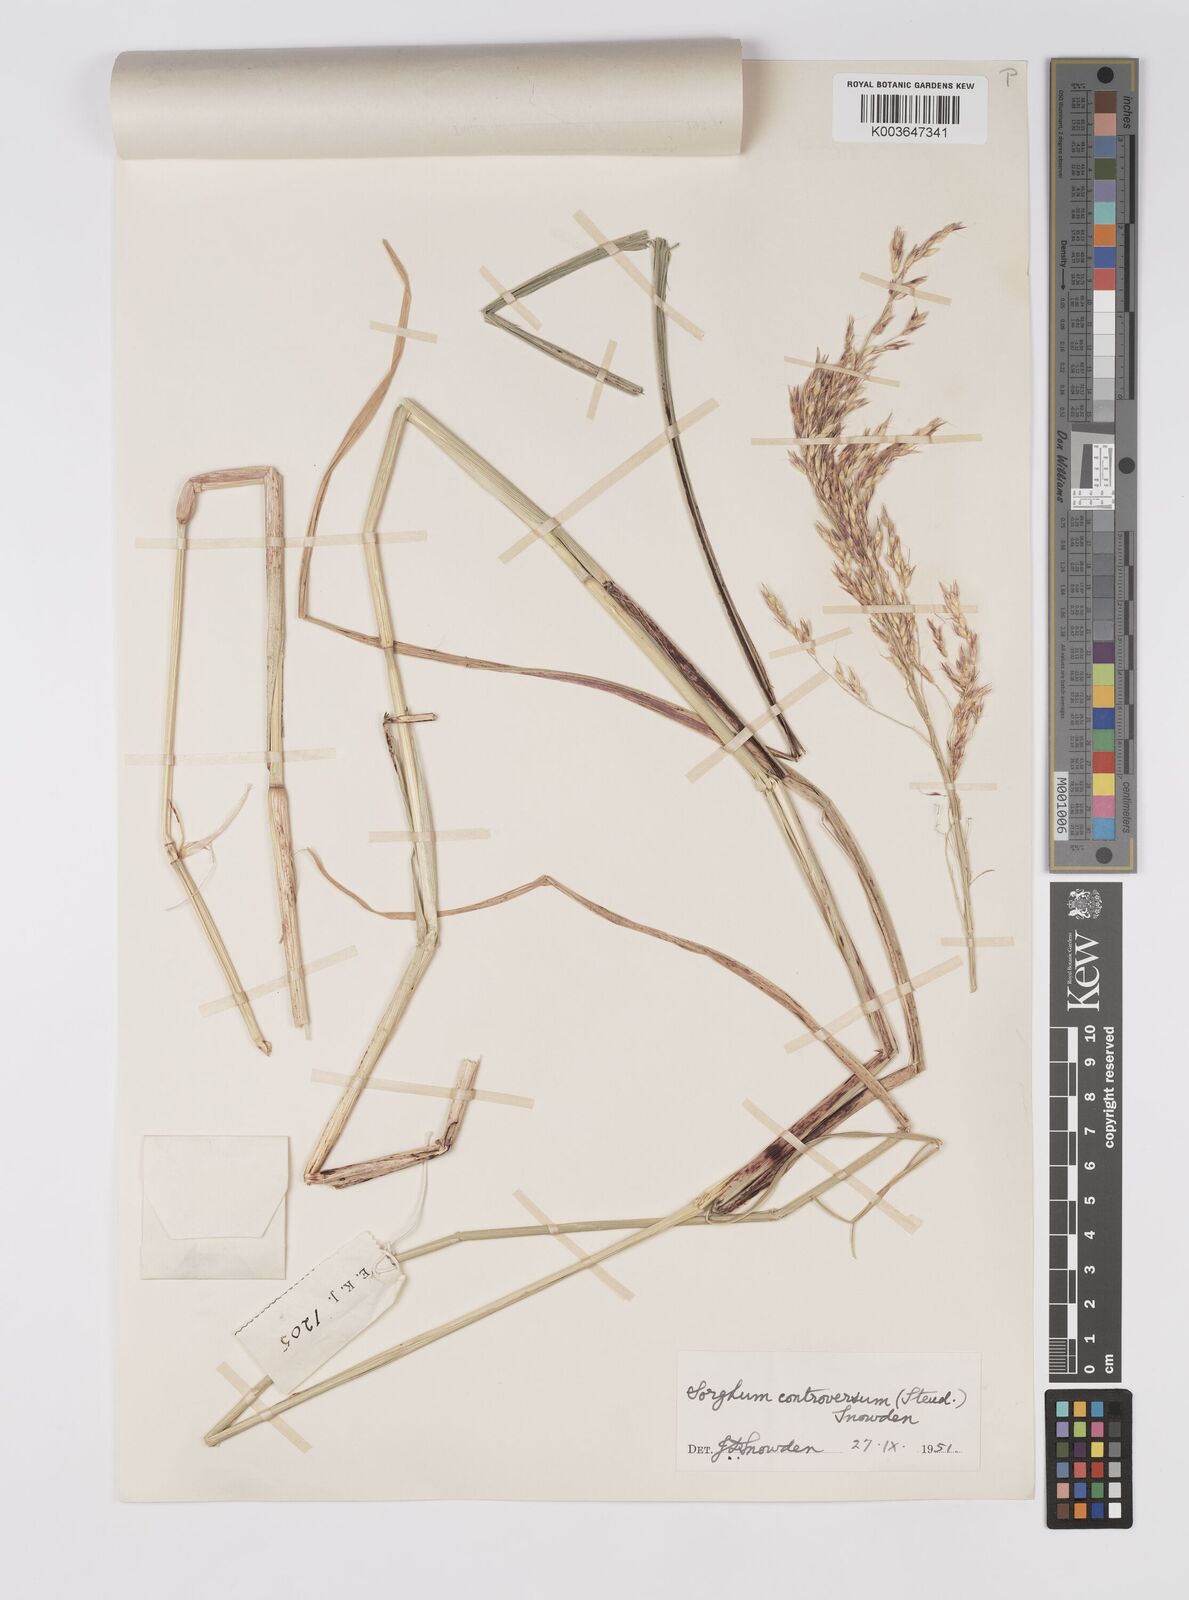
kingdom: Plantae
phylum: Tracheophyta
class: Liliopsida
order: Poales
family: Poaceae
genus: Sorghum
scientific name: Sorghum controversum
